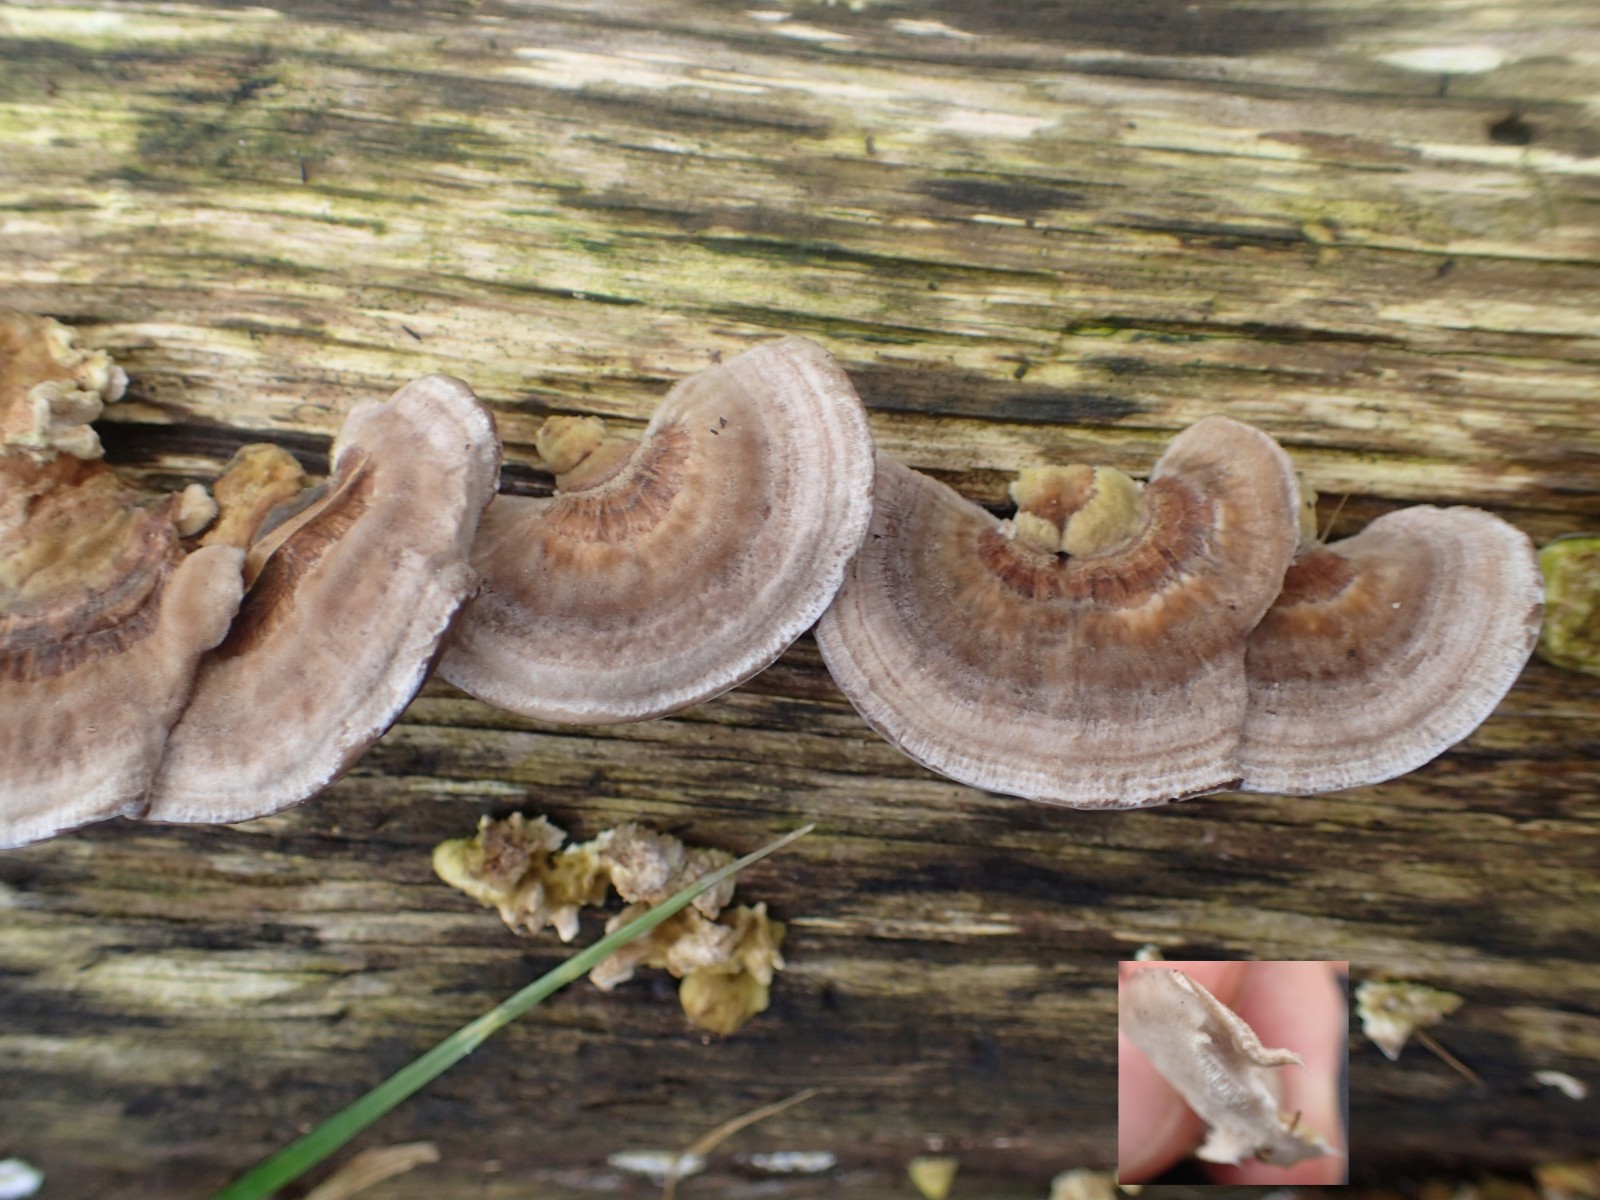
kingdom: Fungi
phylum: Basidiomycota
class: Agaricomycetes
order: Polyporales
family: Polyporaceae
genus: Trametes
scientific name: Trametes ochracea
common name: bæltet læderporesvamp
